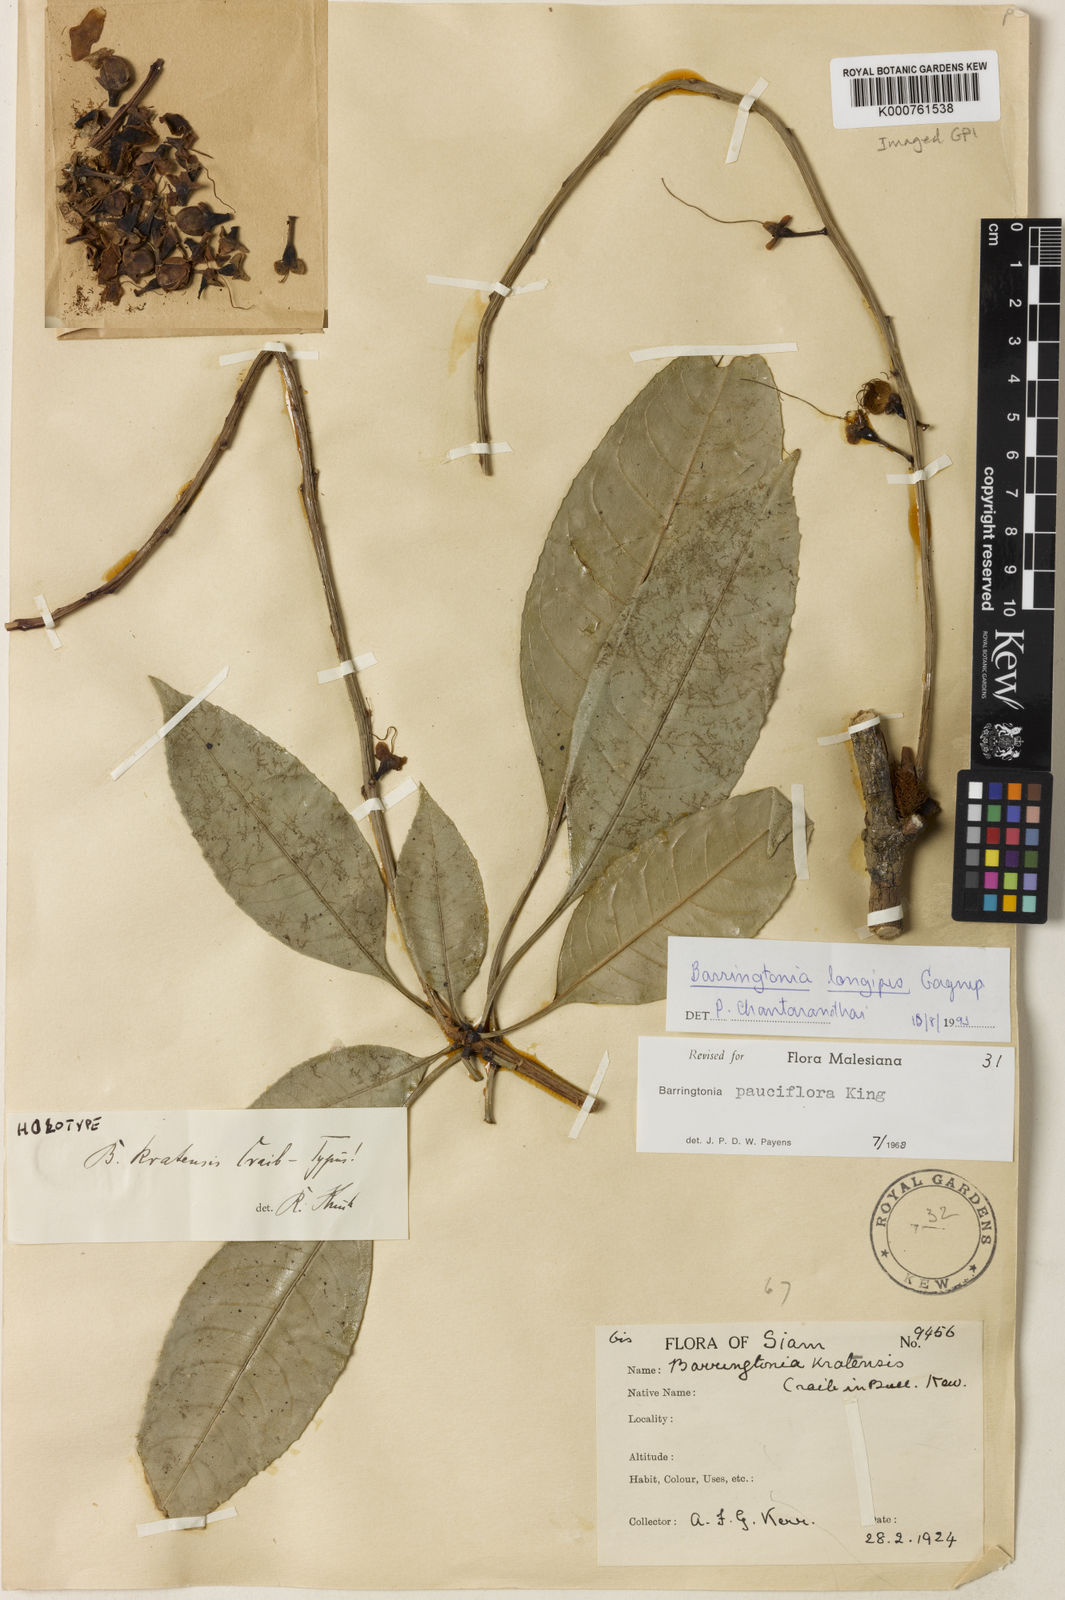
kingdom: Plantae
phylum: Tracheophyta
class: Magnoliopsida
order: Ericales
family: Lecythidaceae
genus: Barringtonia
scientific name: Barringtonia longipes
